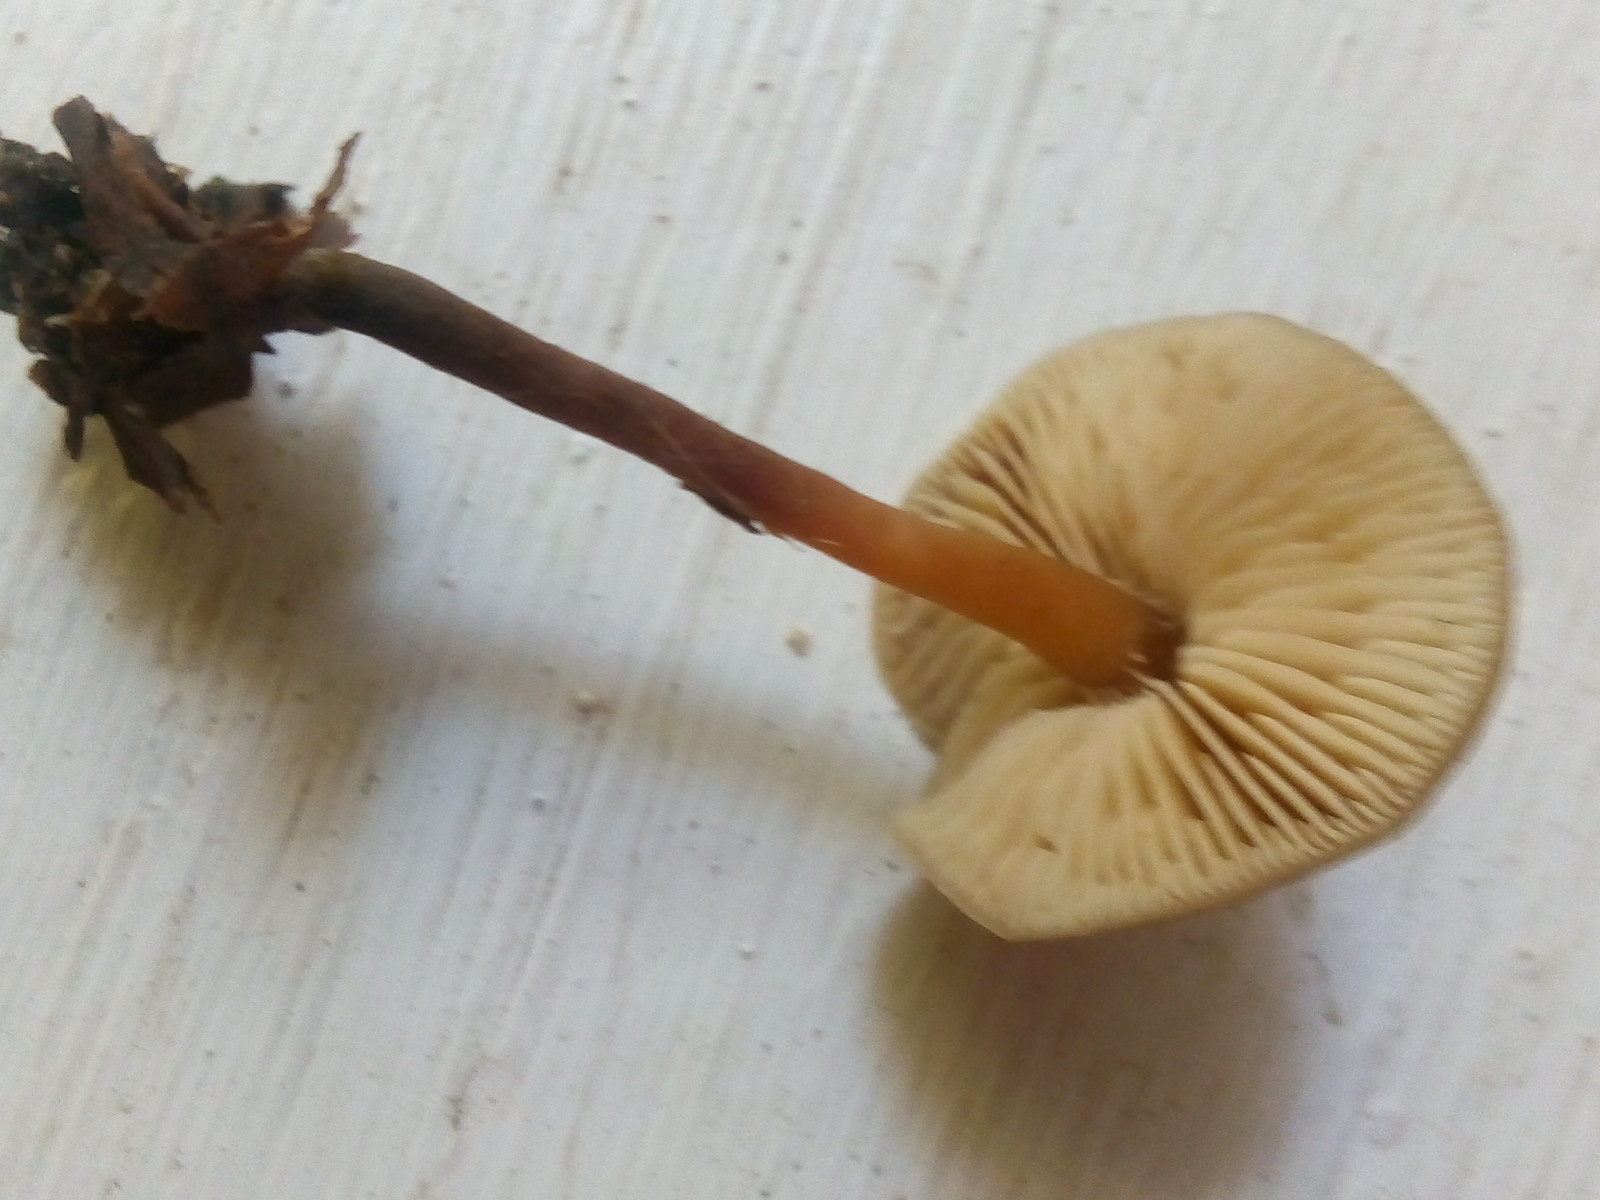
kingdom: Fungi
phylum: Basidiomycota
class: Agaricomycetes
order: Agaricales
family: Macrocystidiaceae
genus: Macrocystidia
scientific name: Macrocystidia cucumis
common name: agurkehat
